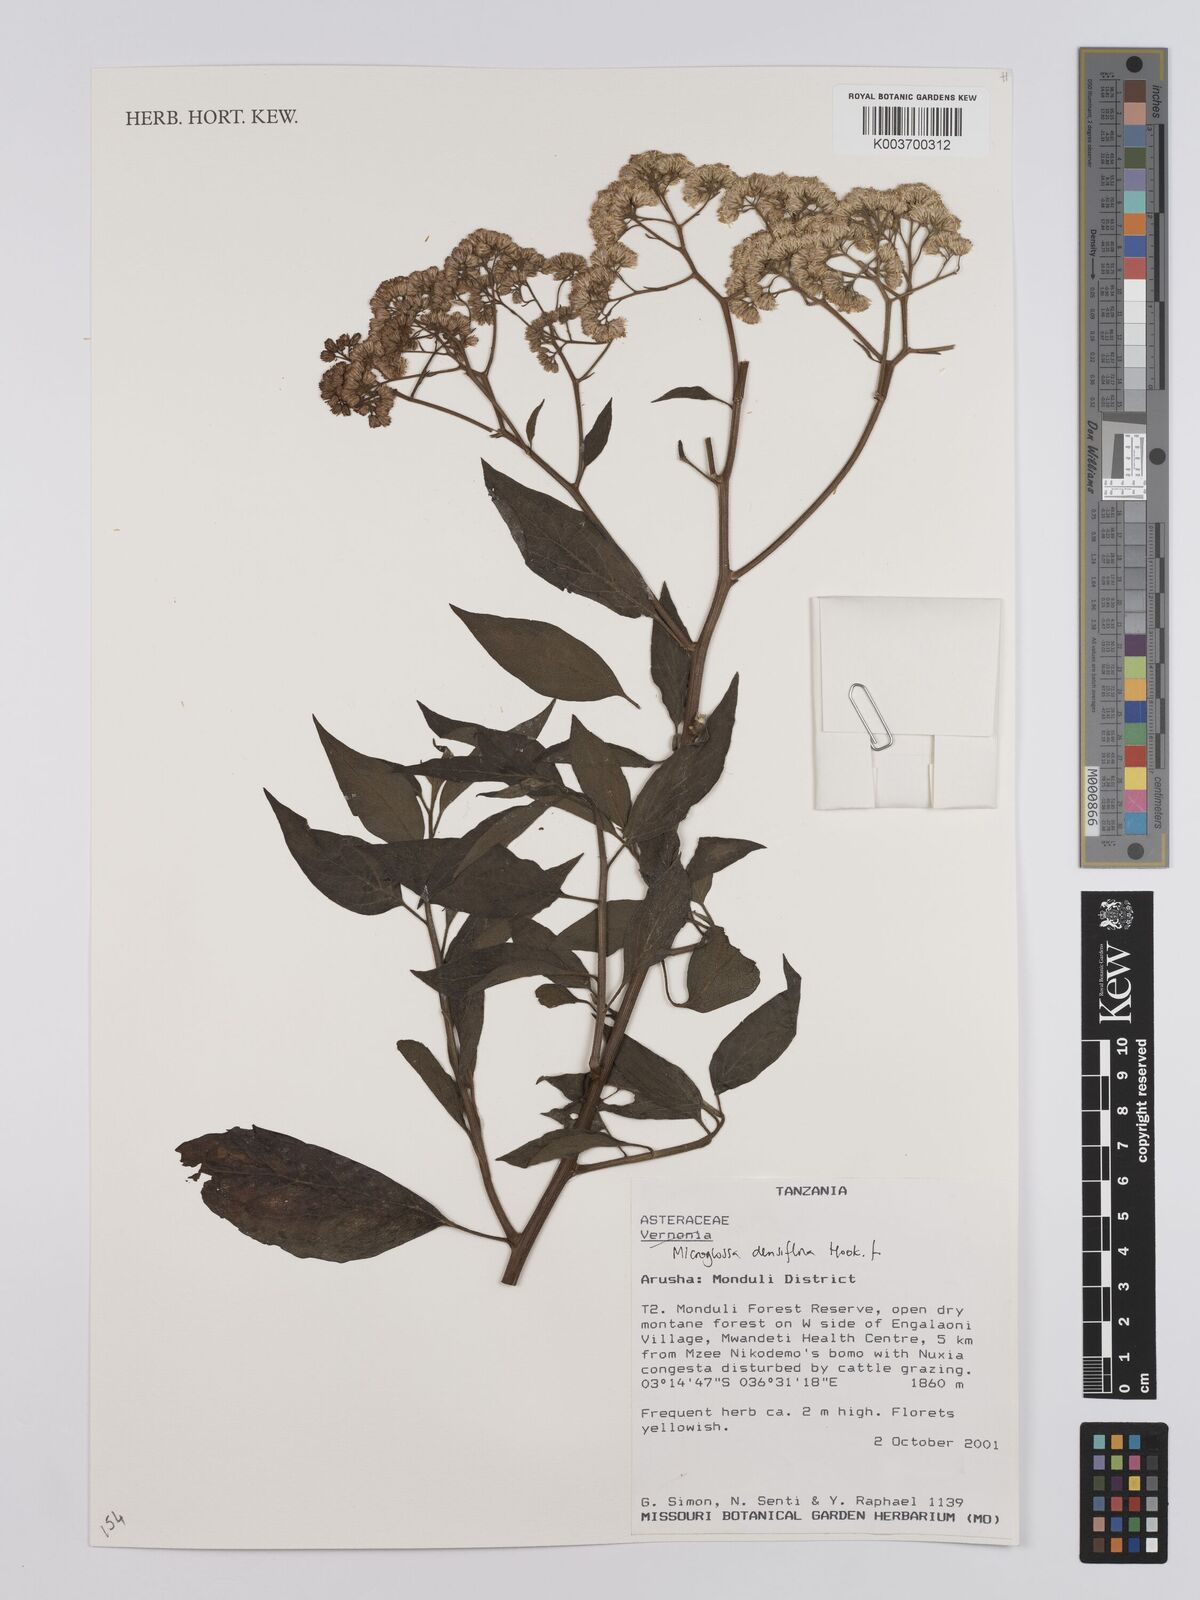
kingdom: Plantae
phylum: Tracheophyta
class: Magnoliopsida
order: Asterales
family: Asteraceae
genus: Microglossa
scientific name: Microglossa densiflora
